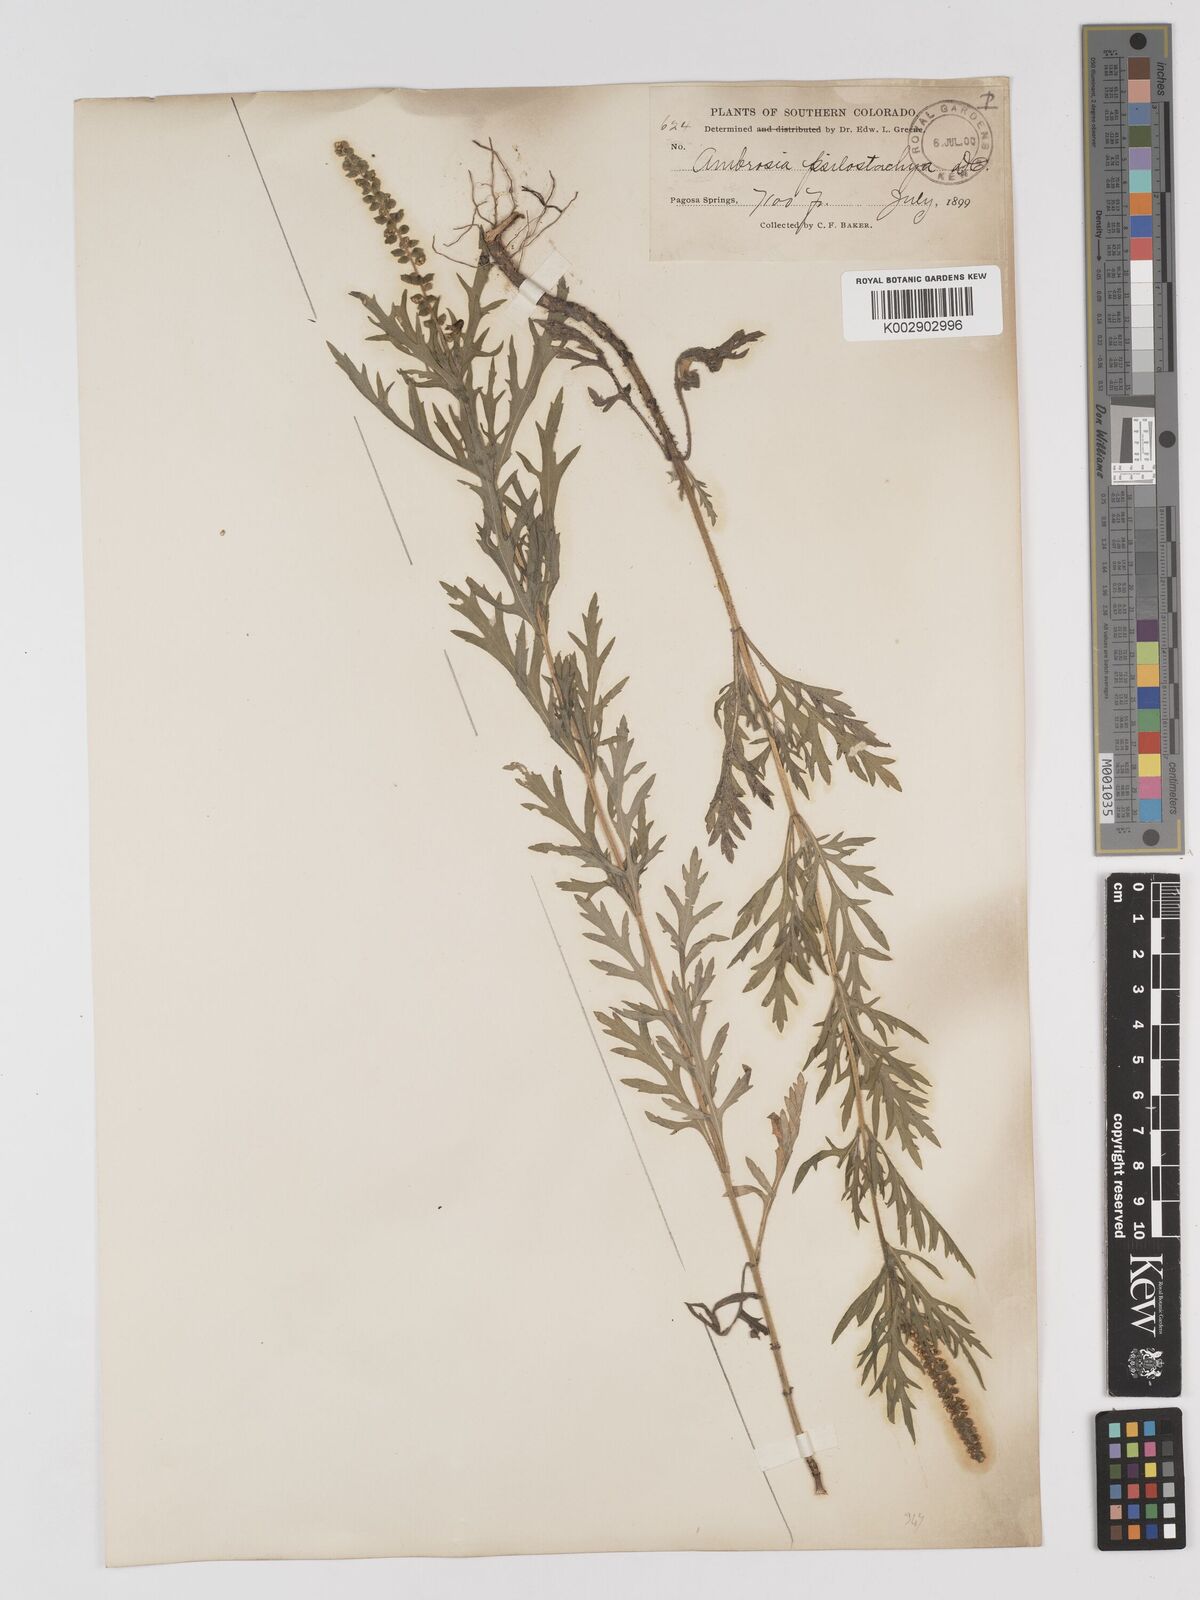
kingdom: Plantae
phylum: Tracheophyta
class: Magnoliopsida
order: Asterales
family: Asteraceae
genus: Ambrosia
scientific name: Ambrosia psilostachya
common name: Perennial ragweed
